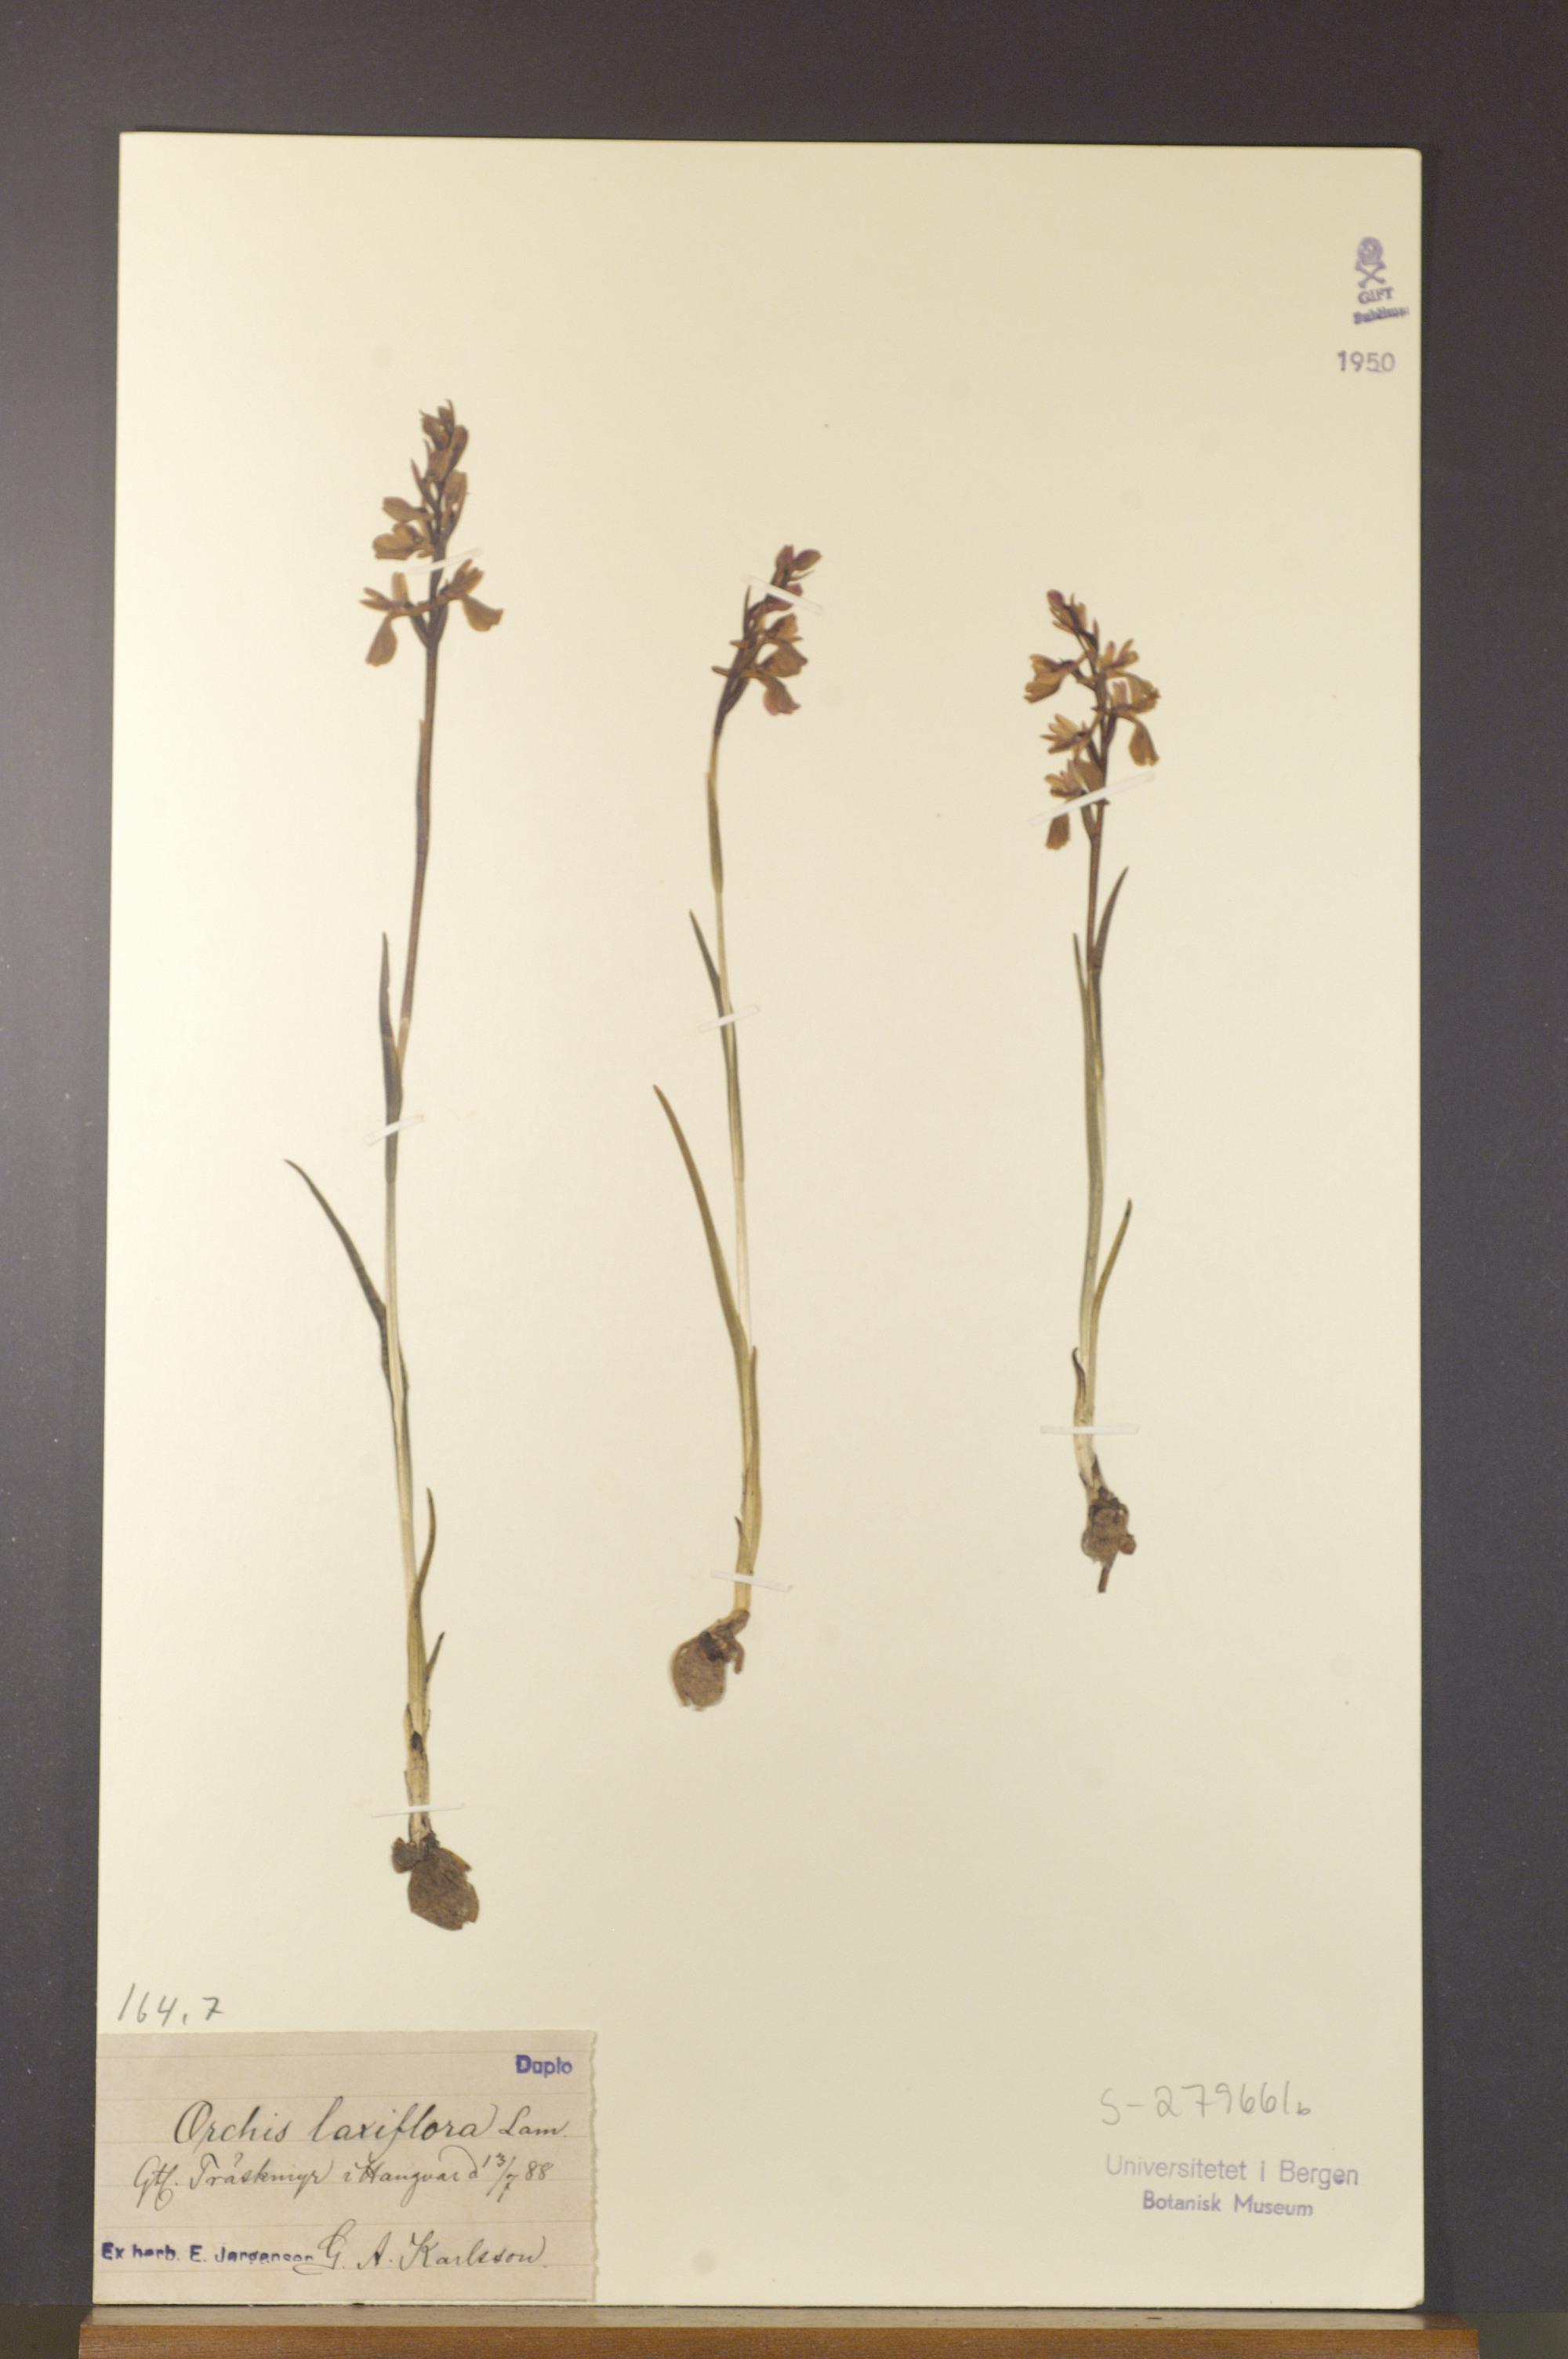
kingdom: Plantae
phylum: Tracheophyta
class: Liliopsida
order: Asparagales
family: Orchidaceae
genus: Anacamptis
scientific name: Anacamptis laxiflora
